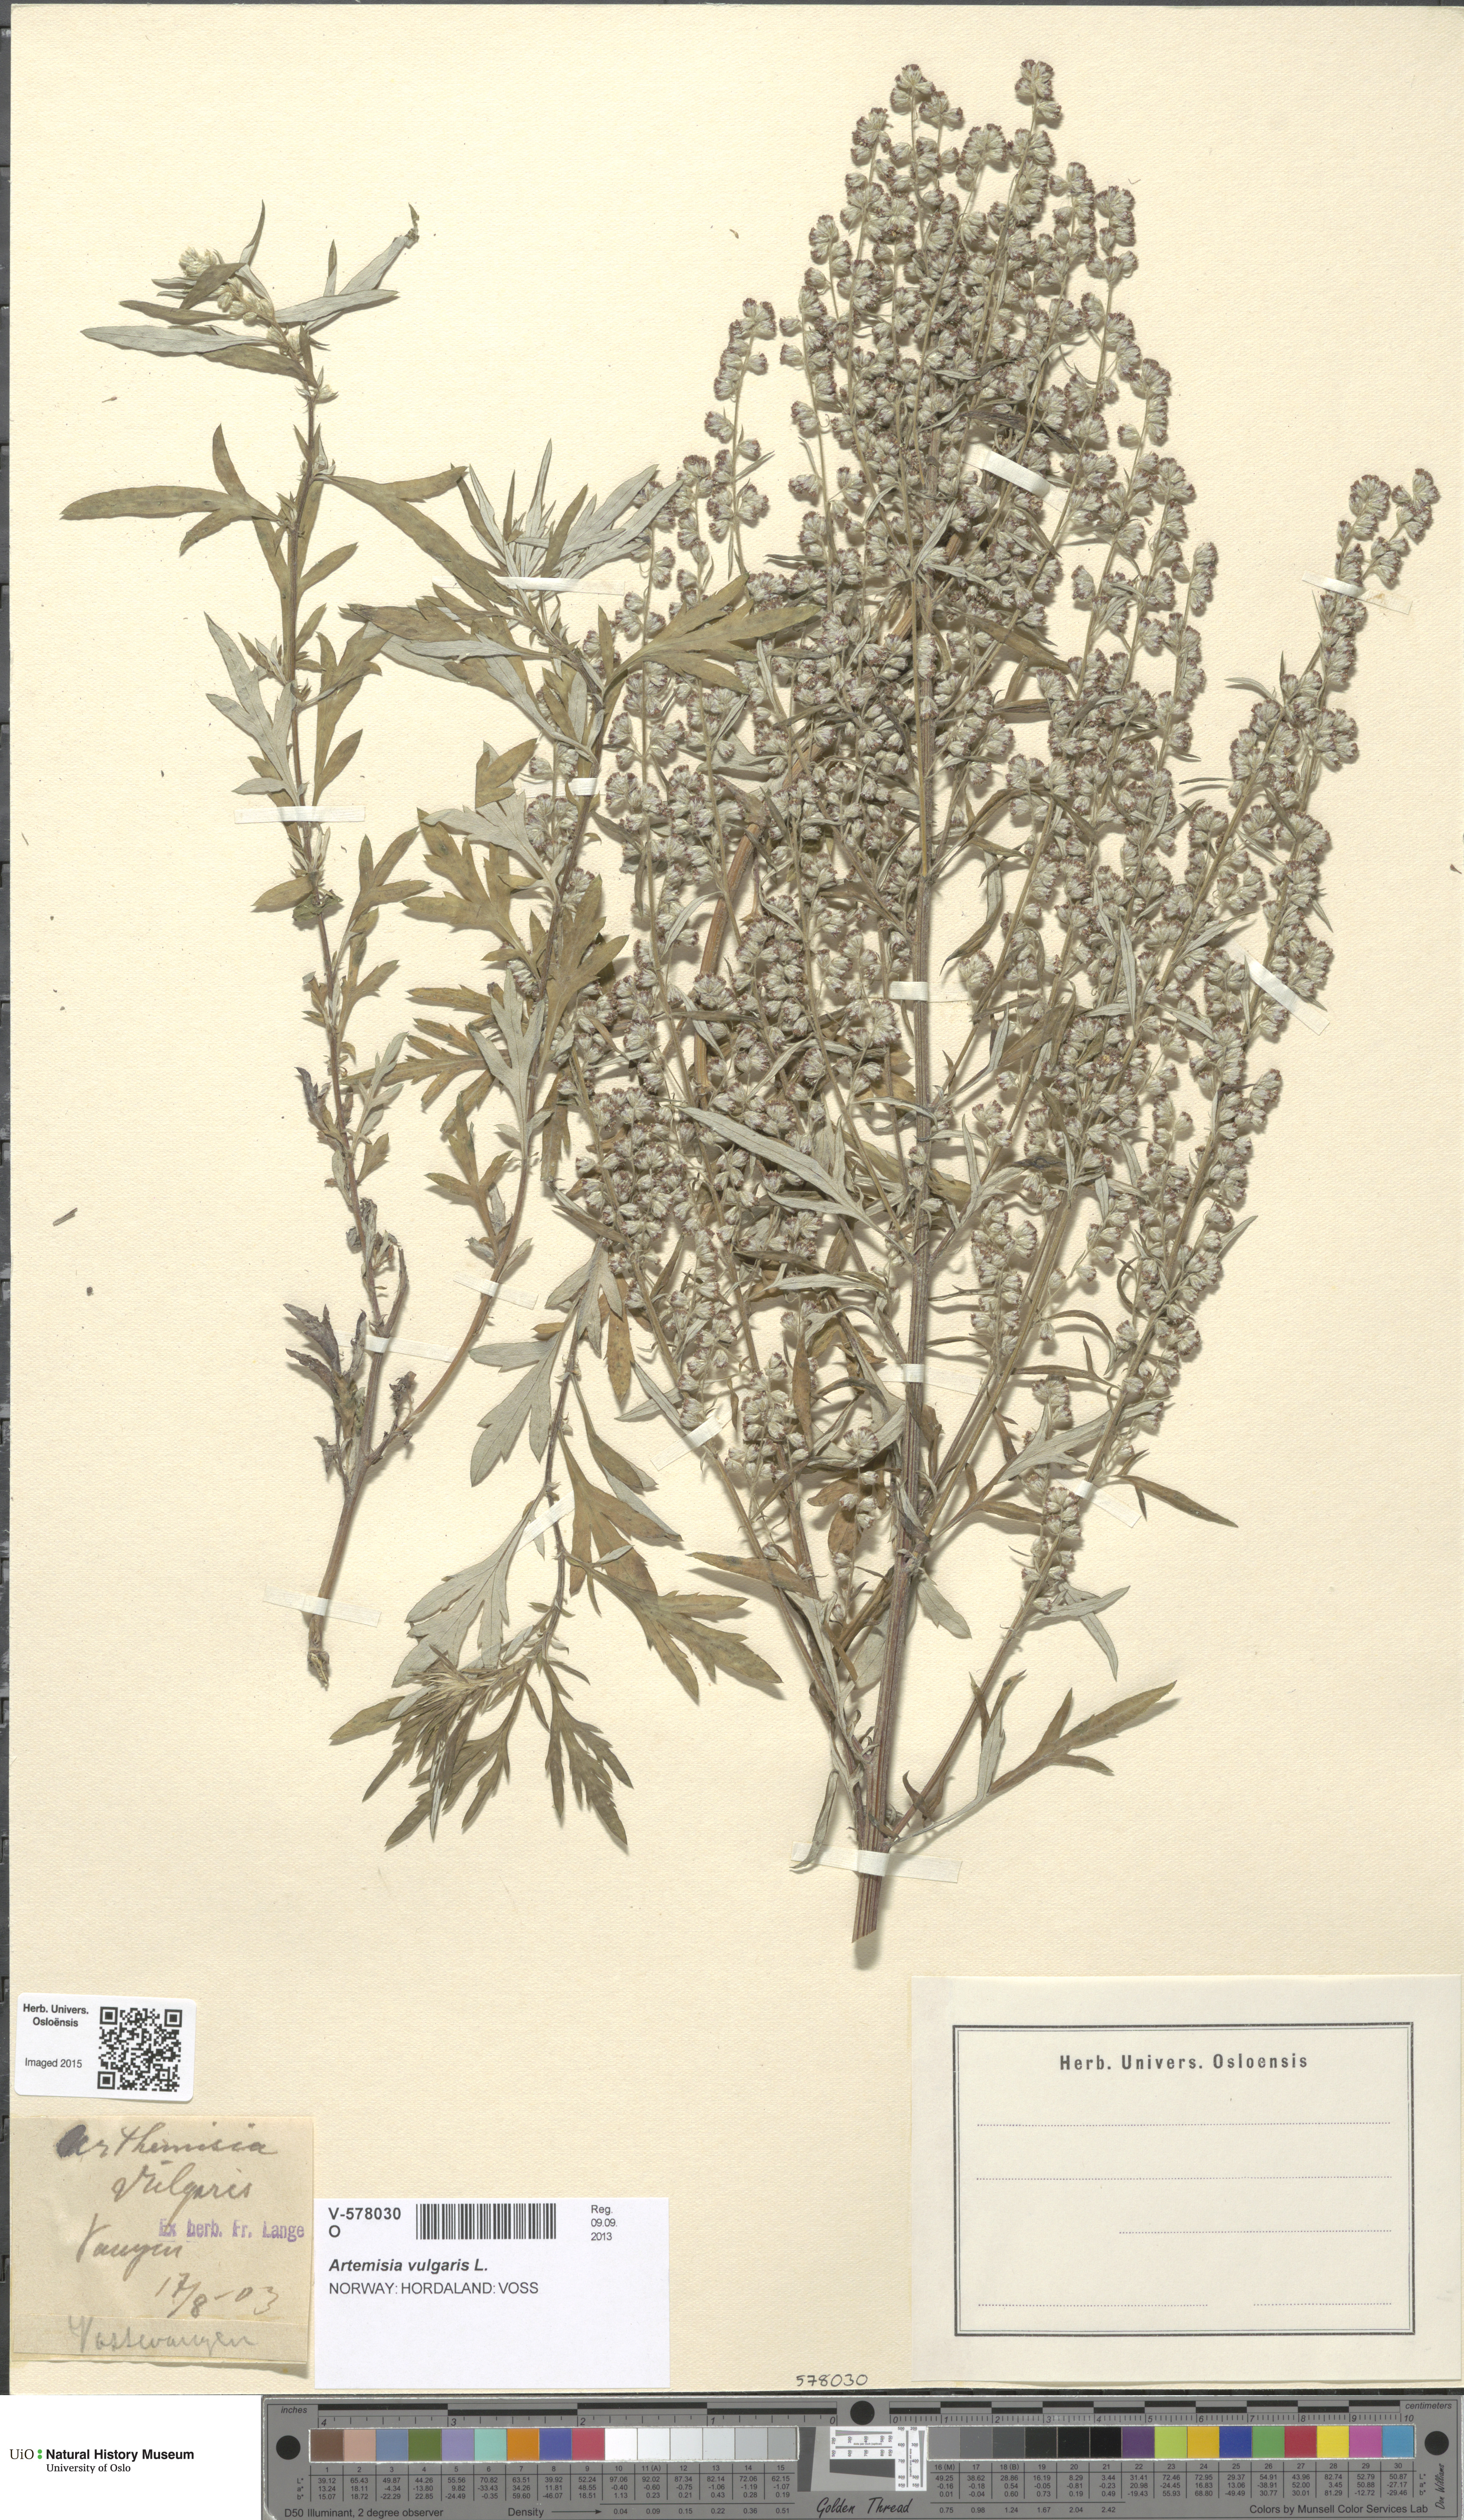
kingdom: Plantae
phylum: Tracheophyta
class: Magnoliopsida
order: Asterales
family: Asteraceae
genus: Artemisia
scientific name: Artemisia vulgaris
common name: Mugwort
